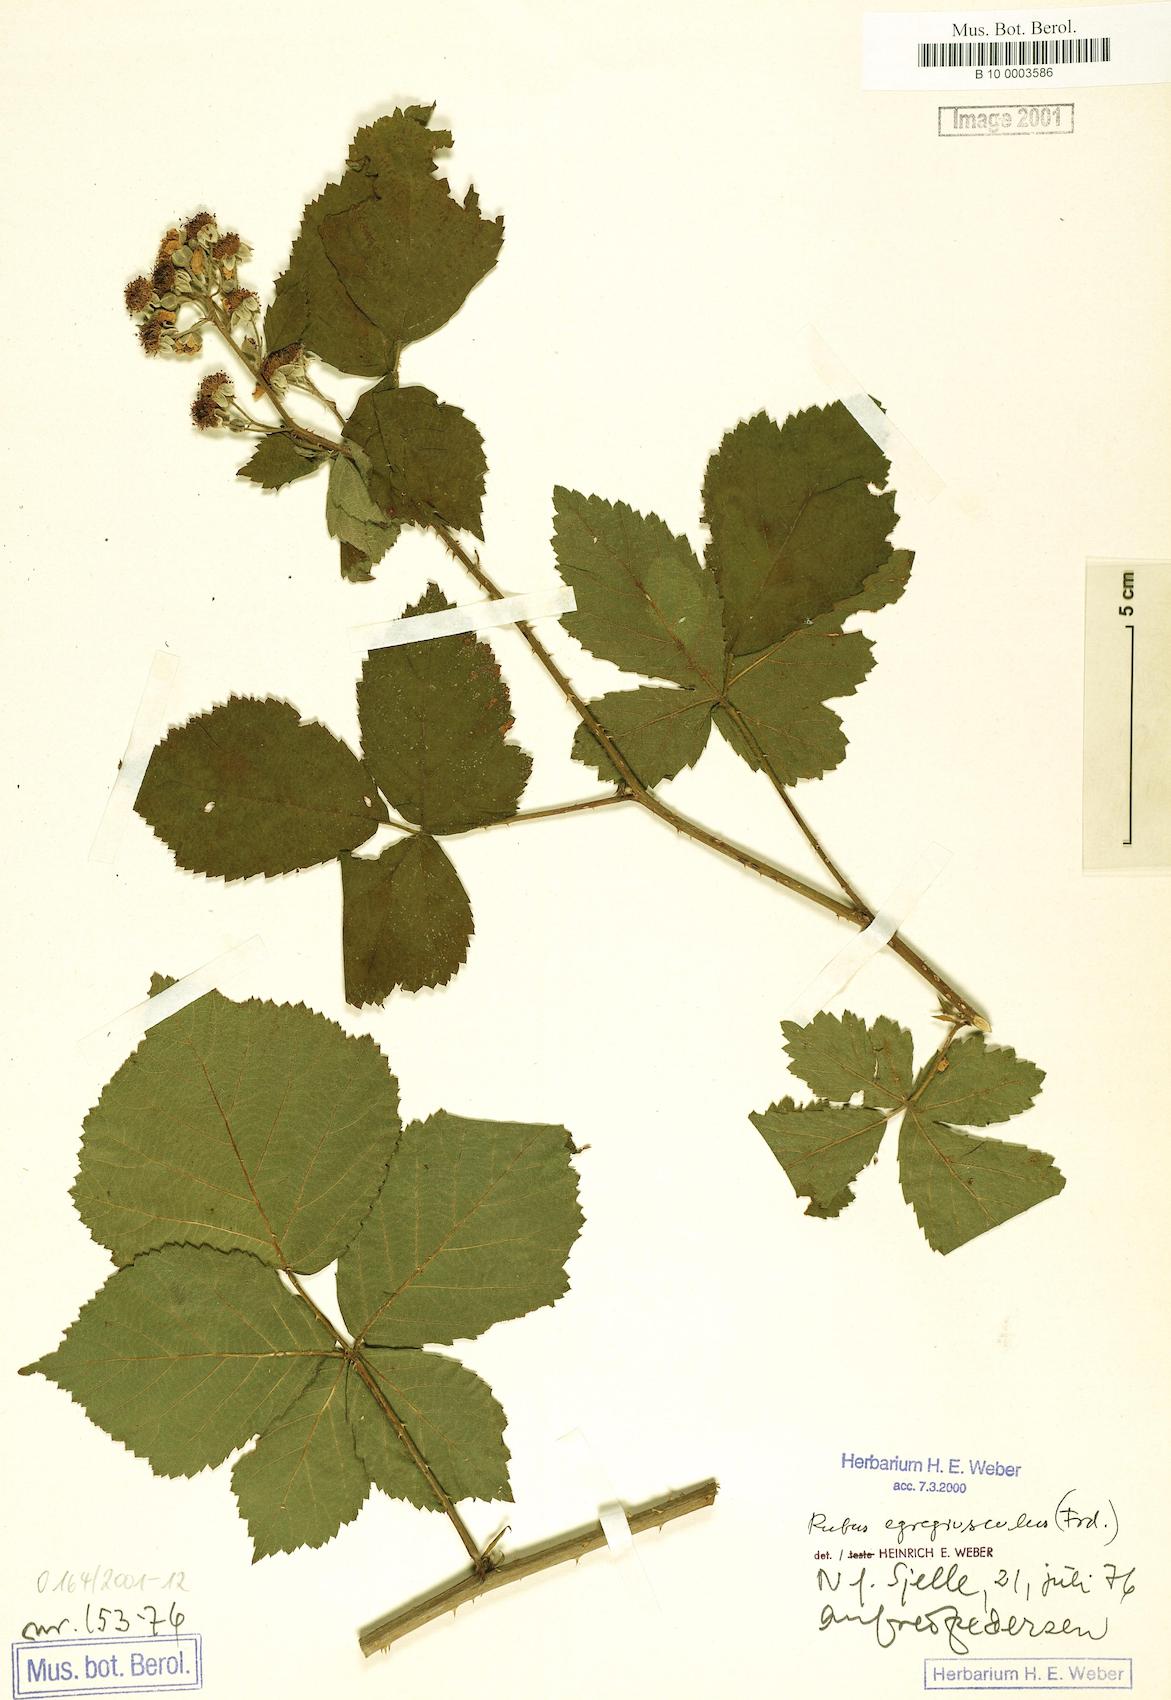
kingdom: Plantae
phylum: Tracheophyta
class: Magnoliopsida
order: Rosales
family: Rosaceae
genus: Rubus
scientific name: Rubus egregiusculus
